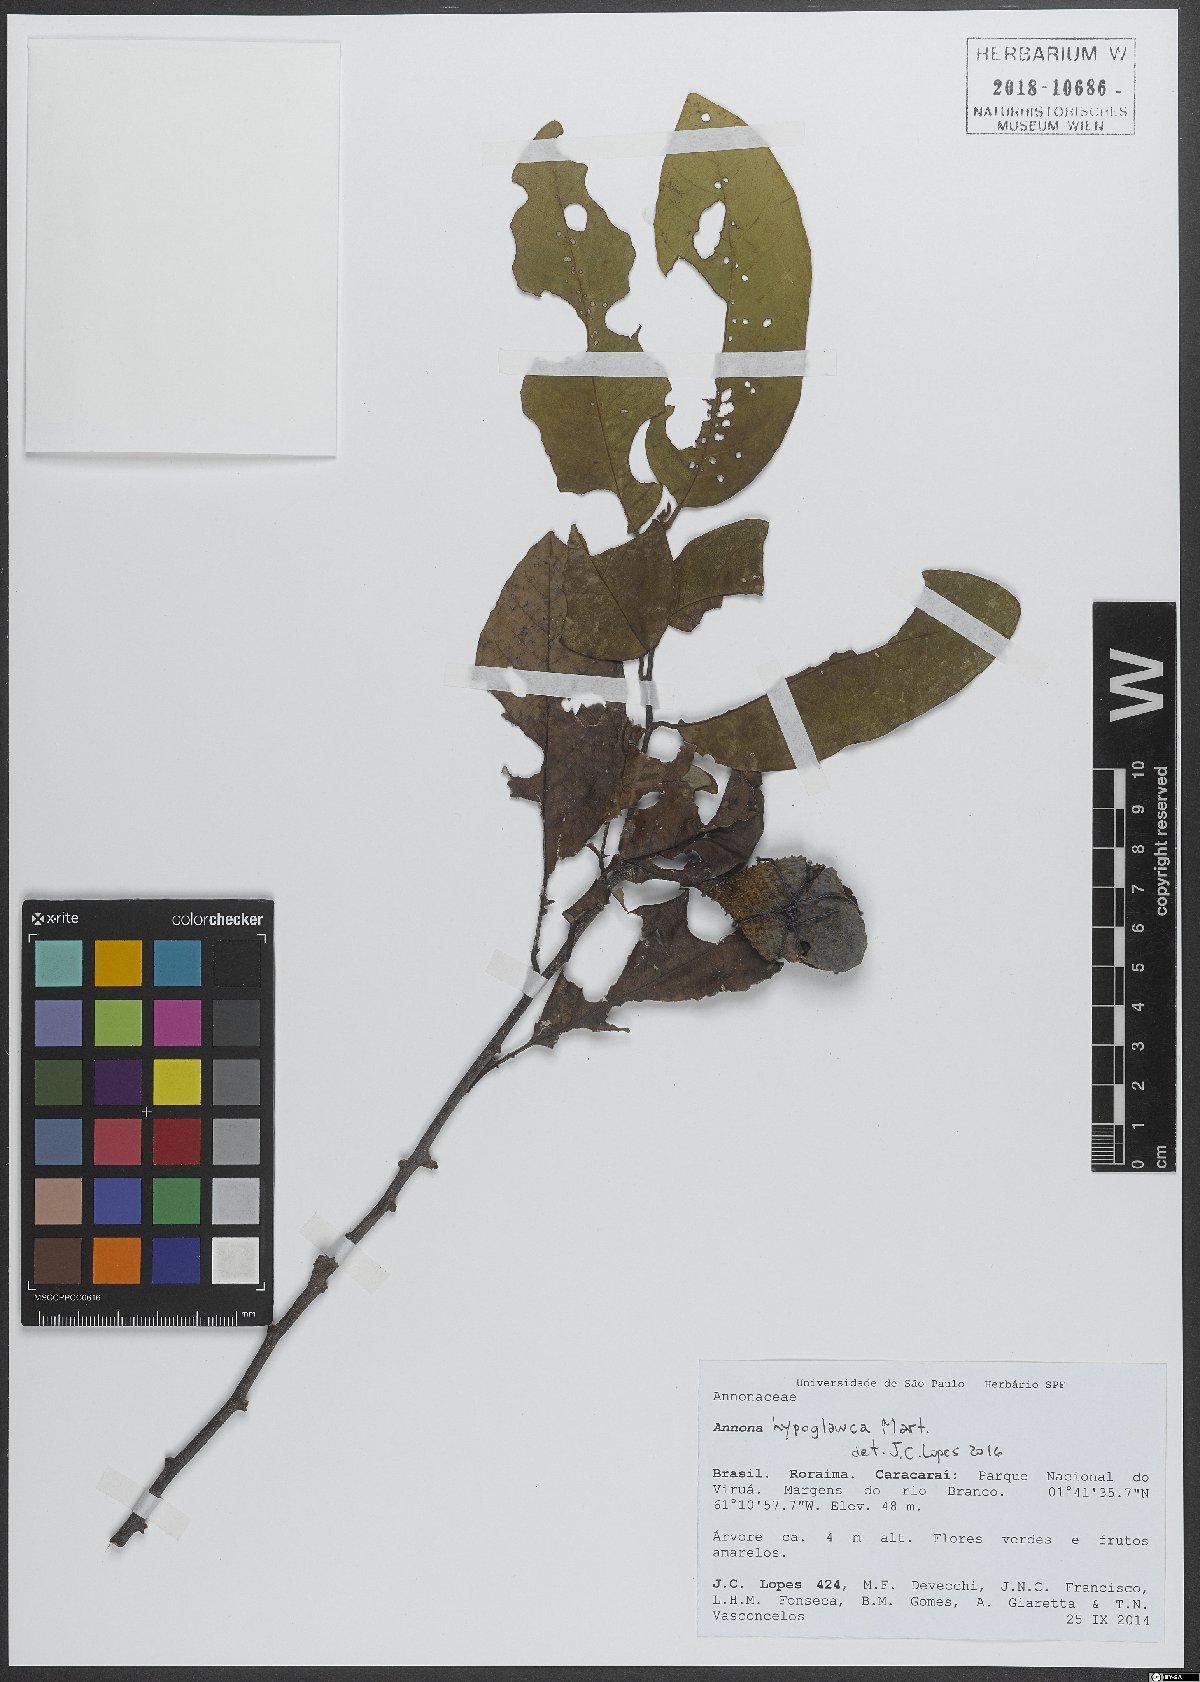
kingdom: Plantae
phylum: Tracheophyta
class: Magnoliopsida
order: Magnoliales
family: Annonaceae
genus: Annona
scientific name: Annona hypoglauca
